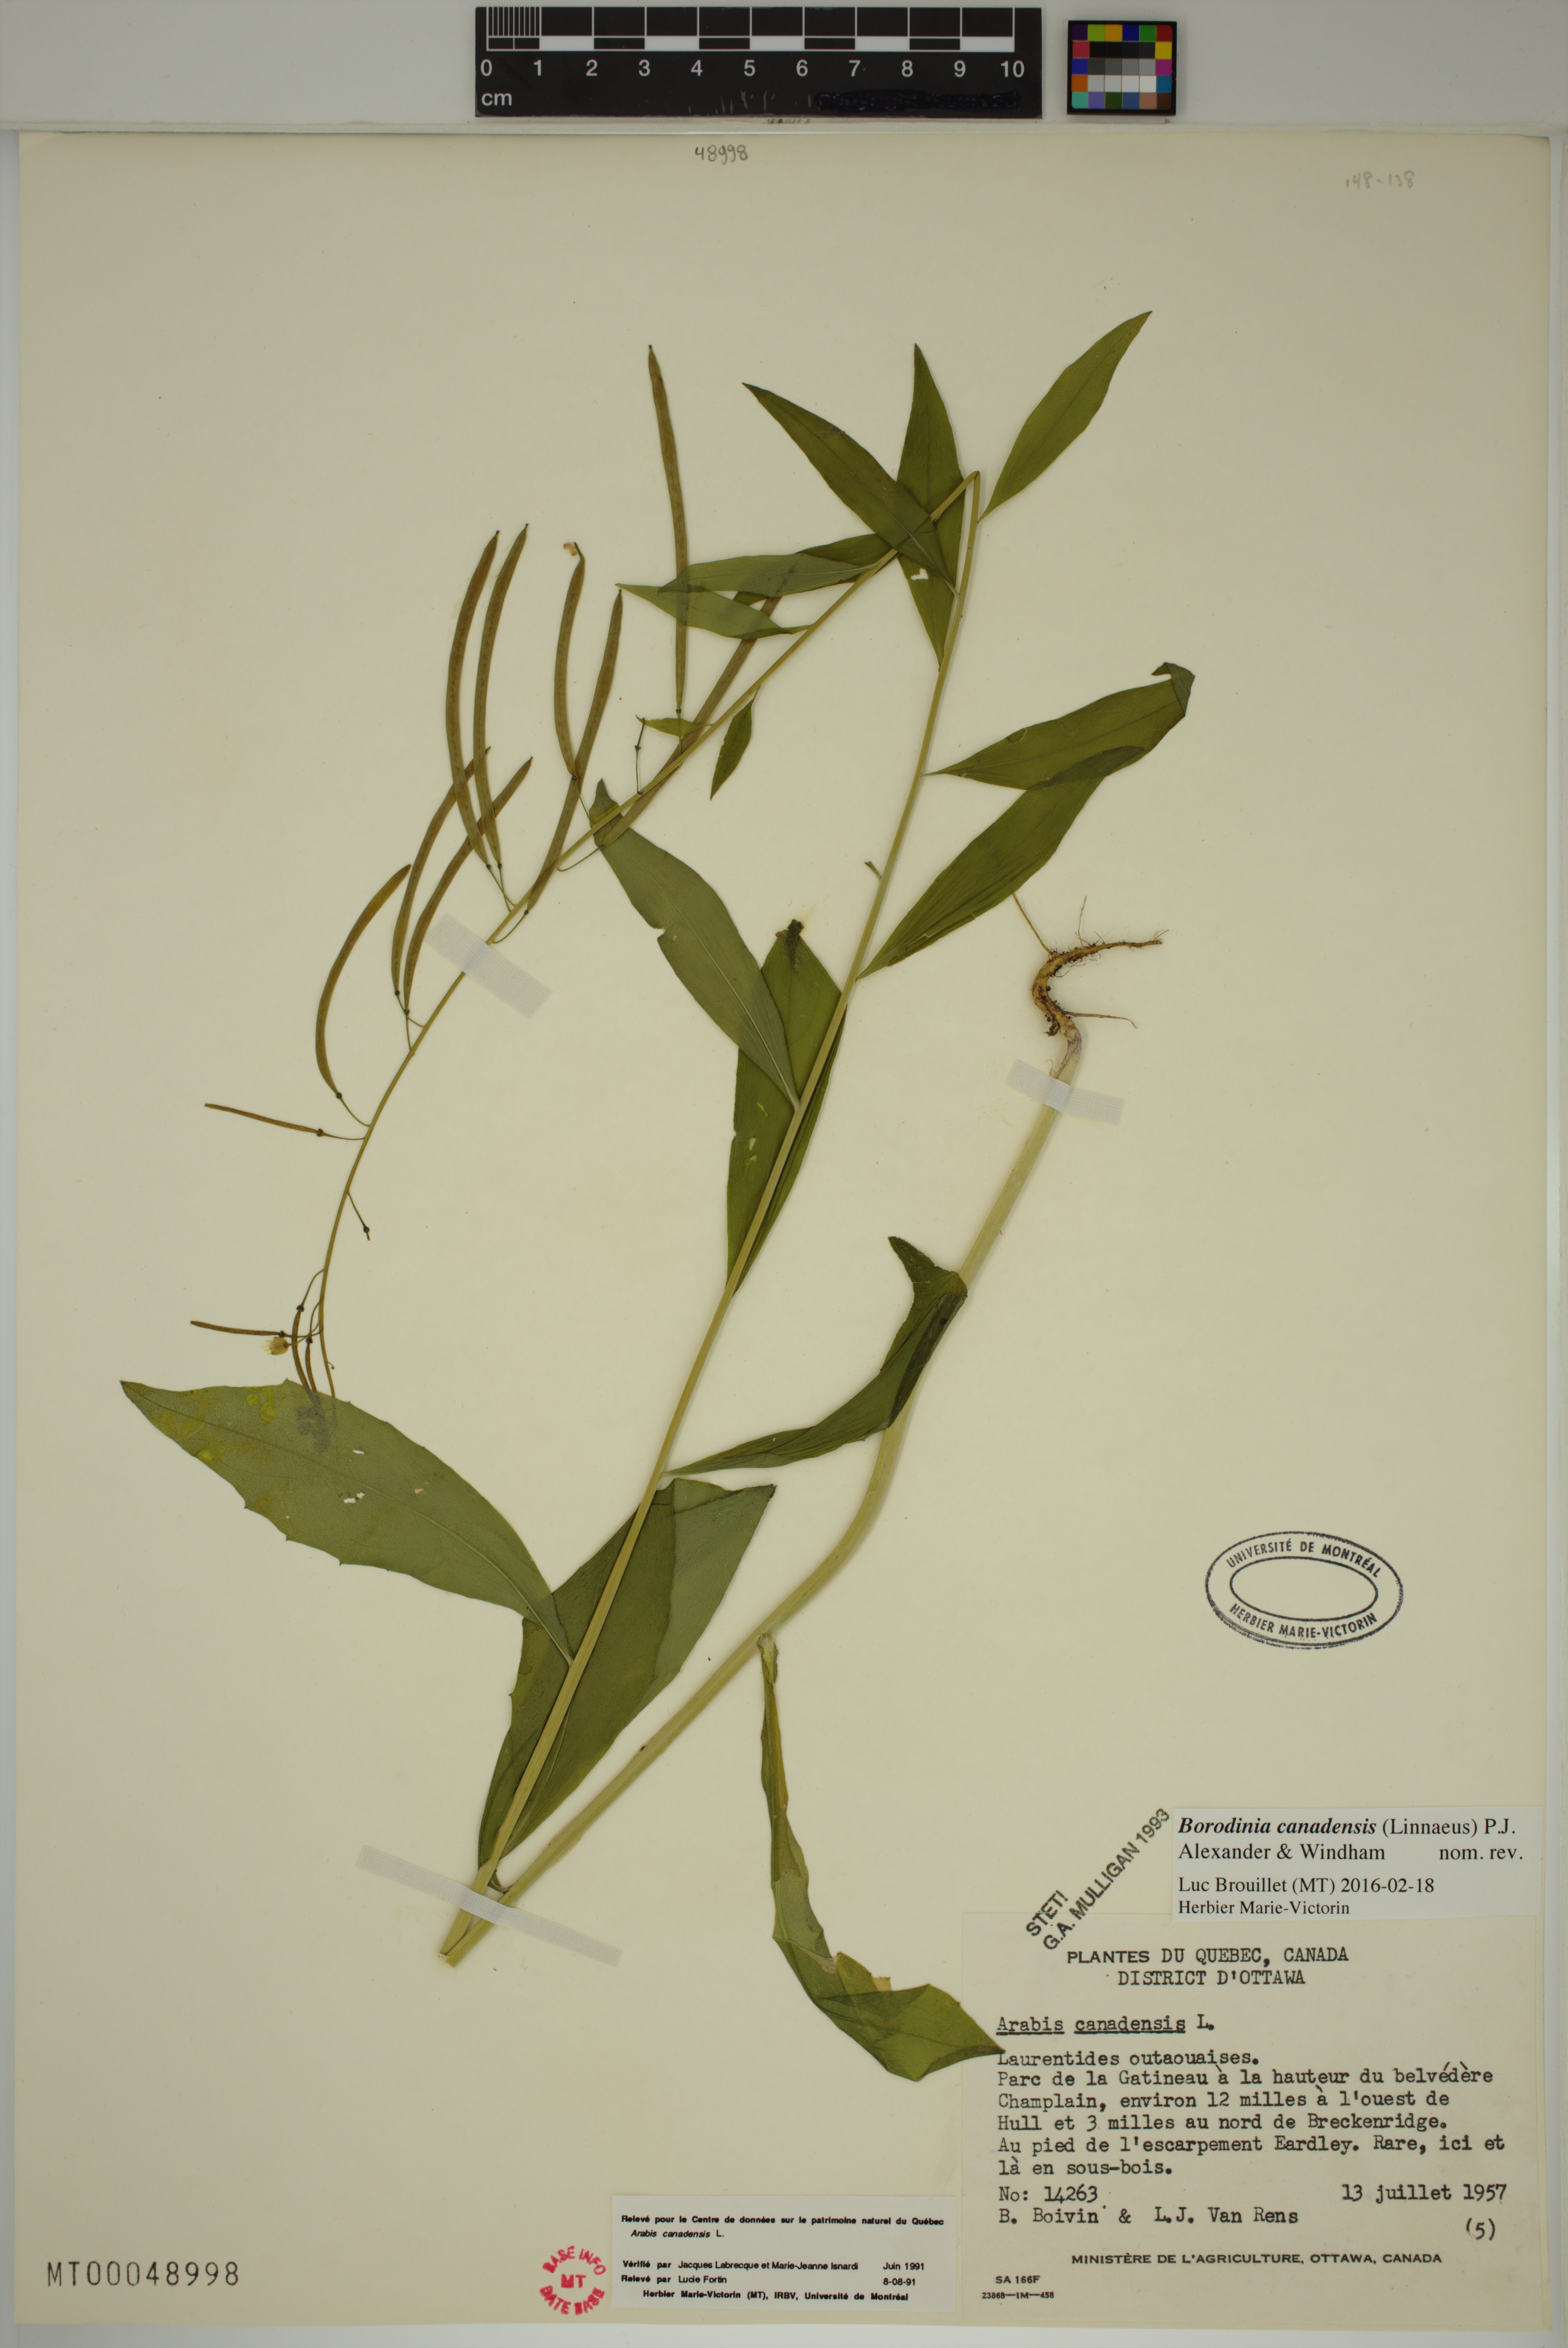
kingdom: Plantae
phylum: Tracheophyta
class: Magnoliopsida
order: Brassicales
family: Brassicaceae
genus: Borodinia
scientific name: Borodinia canadensis
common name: Sicklepod
